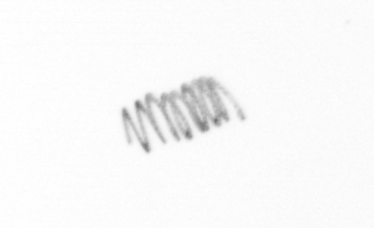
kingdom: Chromista
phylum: Ochrophyta
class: Bacillariophyceae
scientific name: Bacillariophyceae
